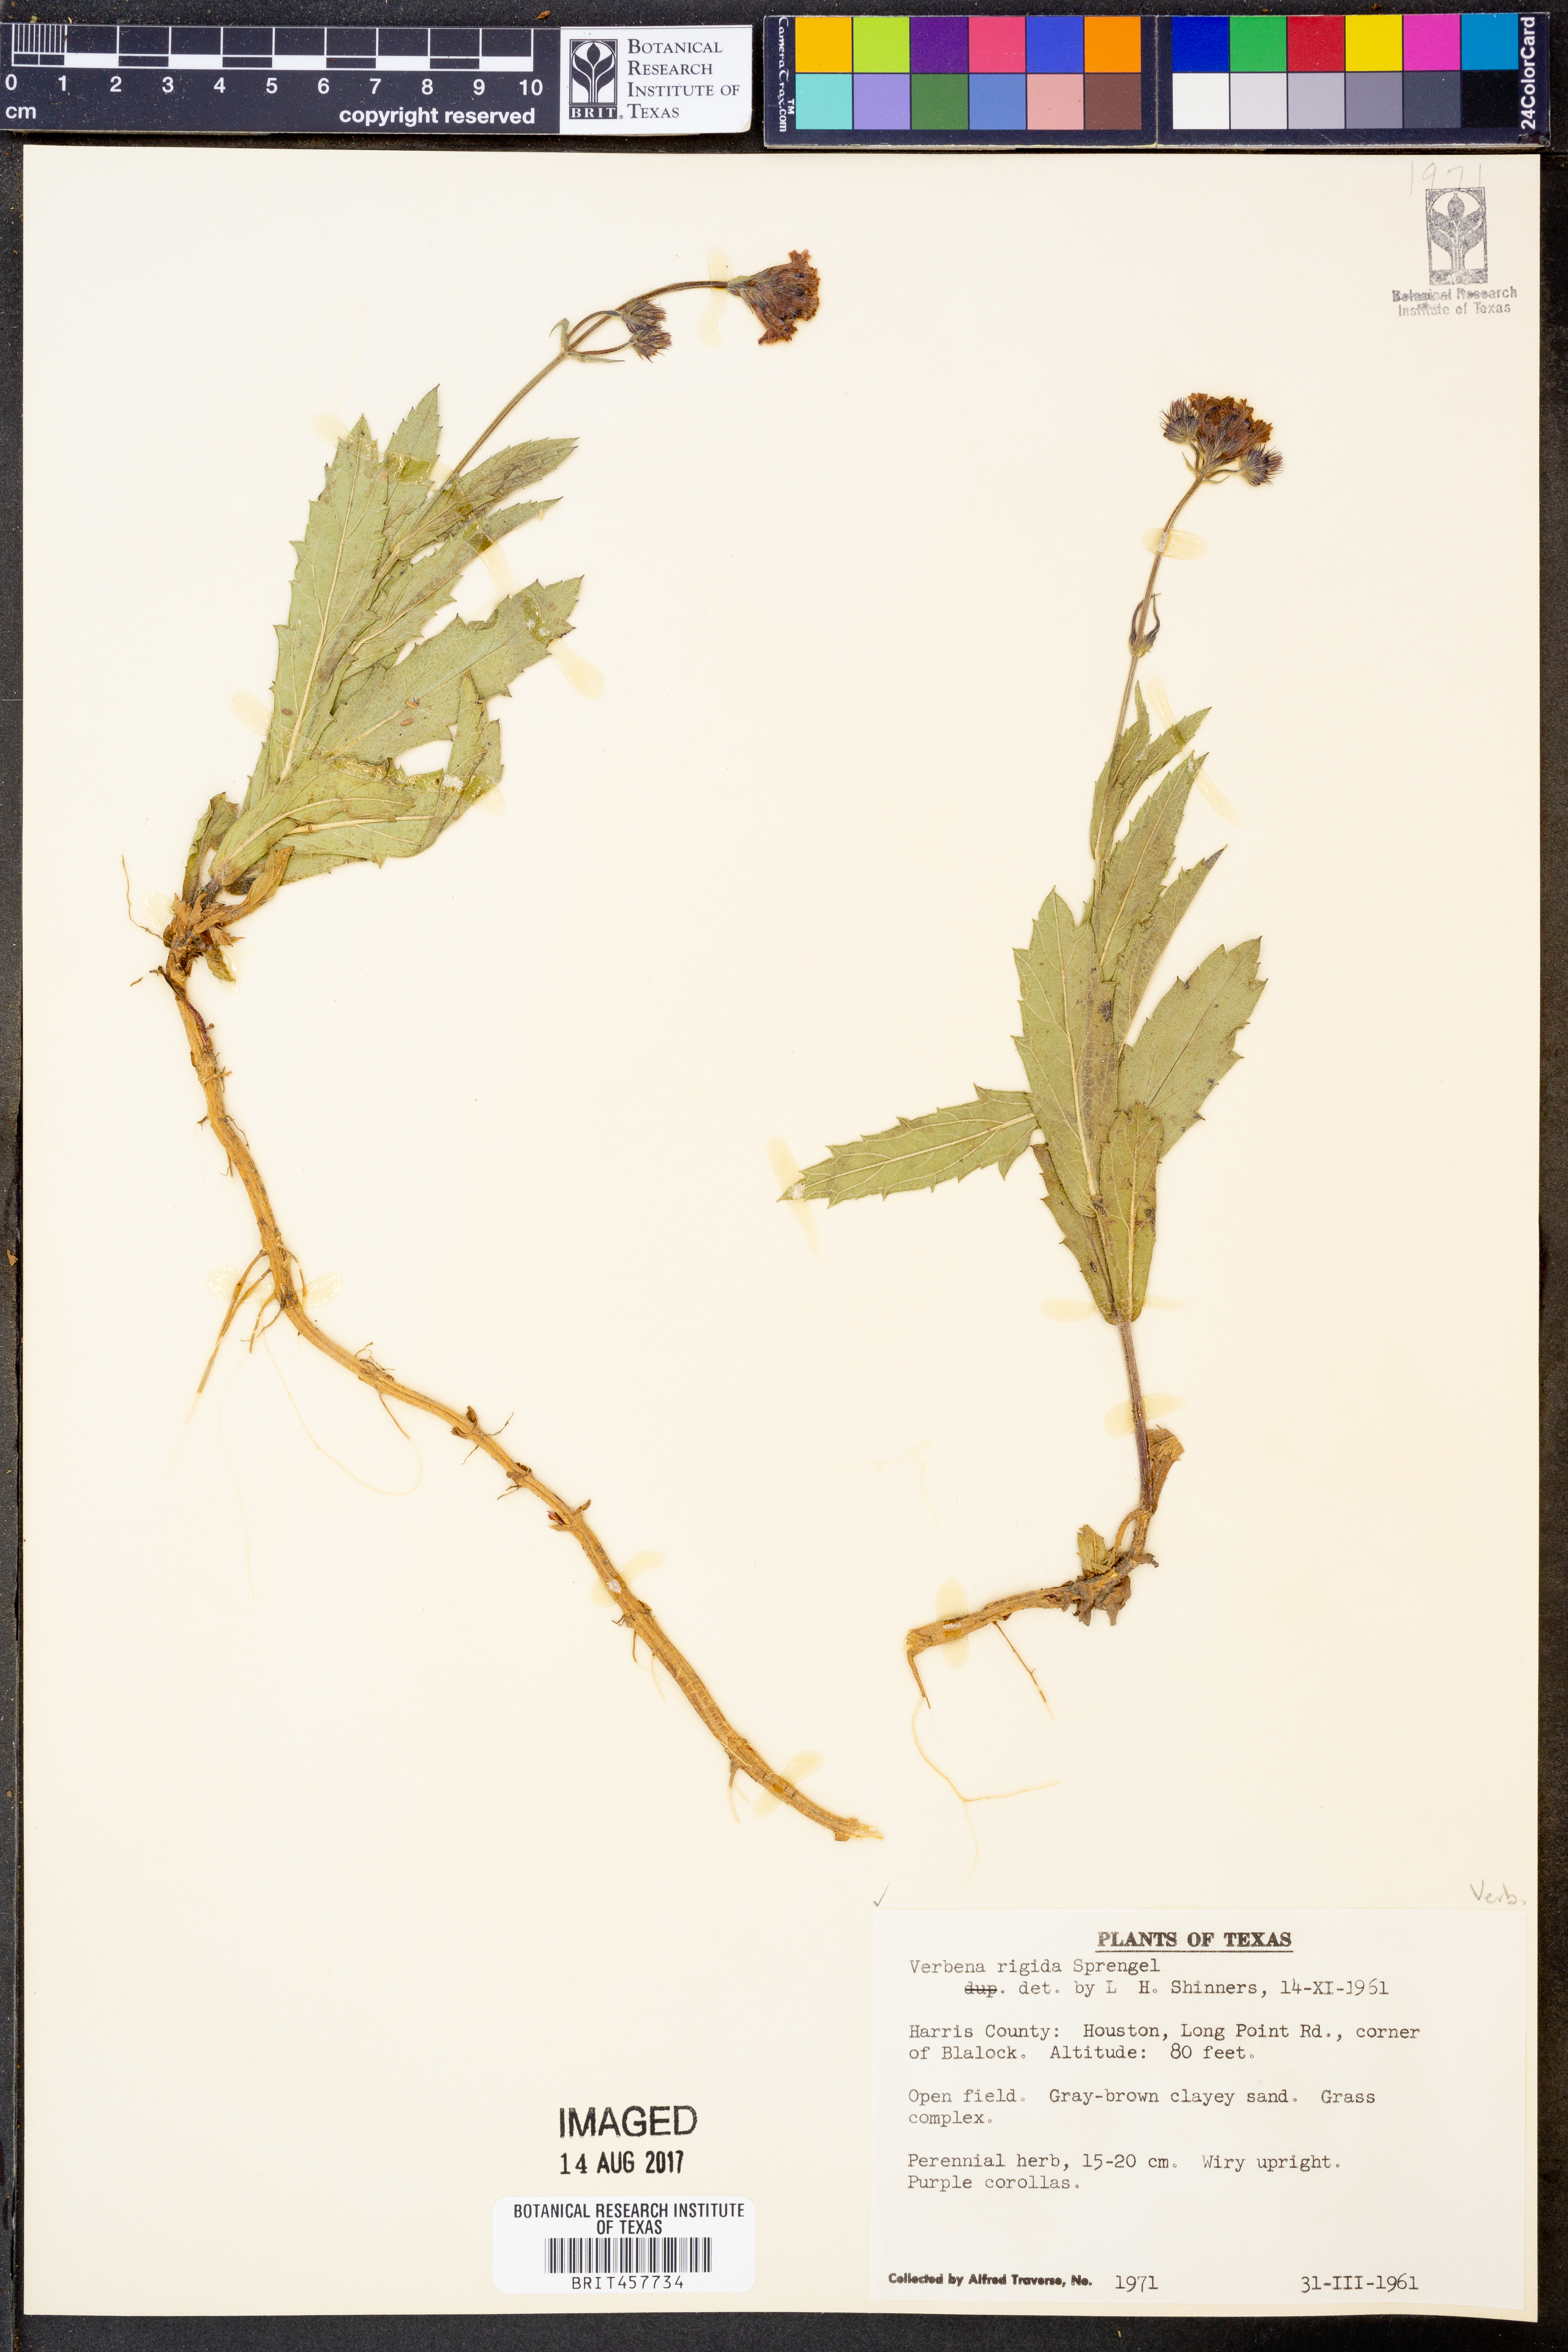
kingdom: Plantae
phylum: Tracheophyta
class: Magnoliopsida
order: Lamiales
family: Verbenaceae
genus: Verbena
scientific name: Verbena rigida
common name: Slender vervain
